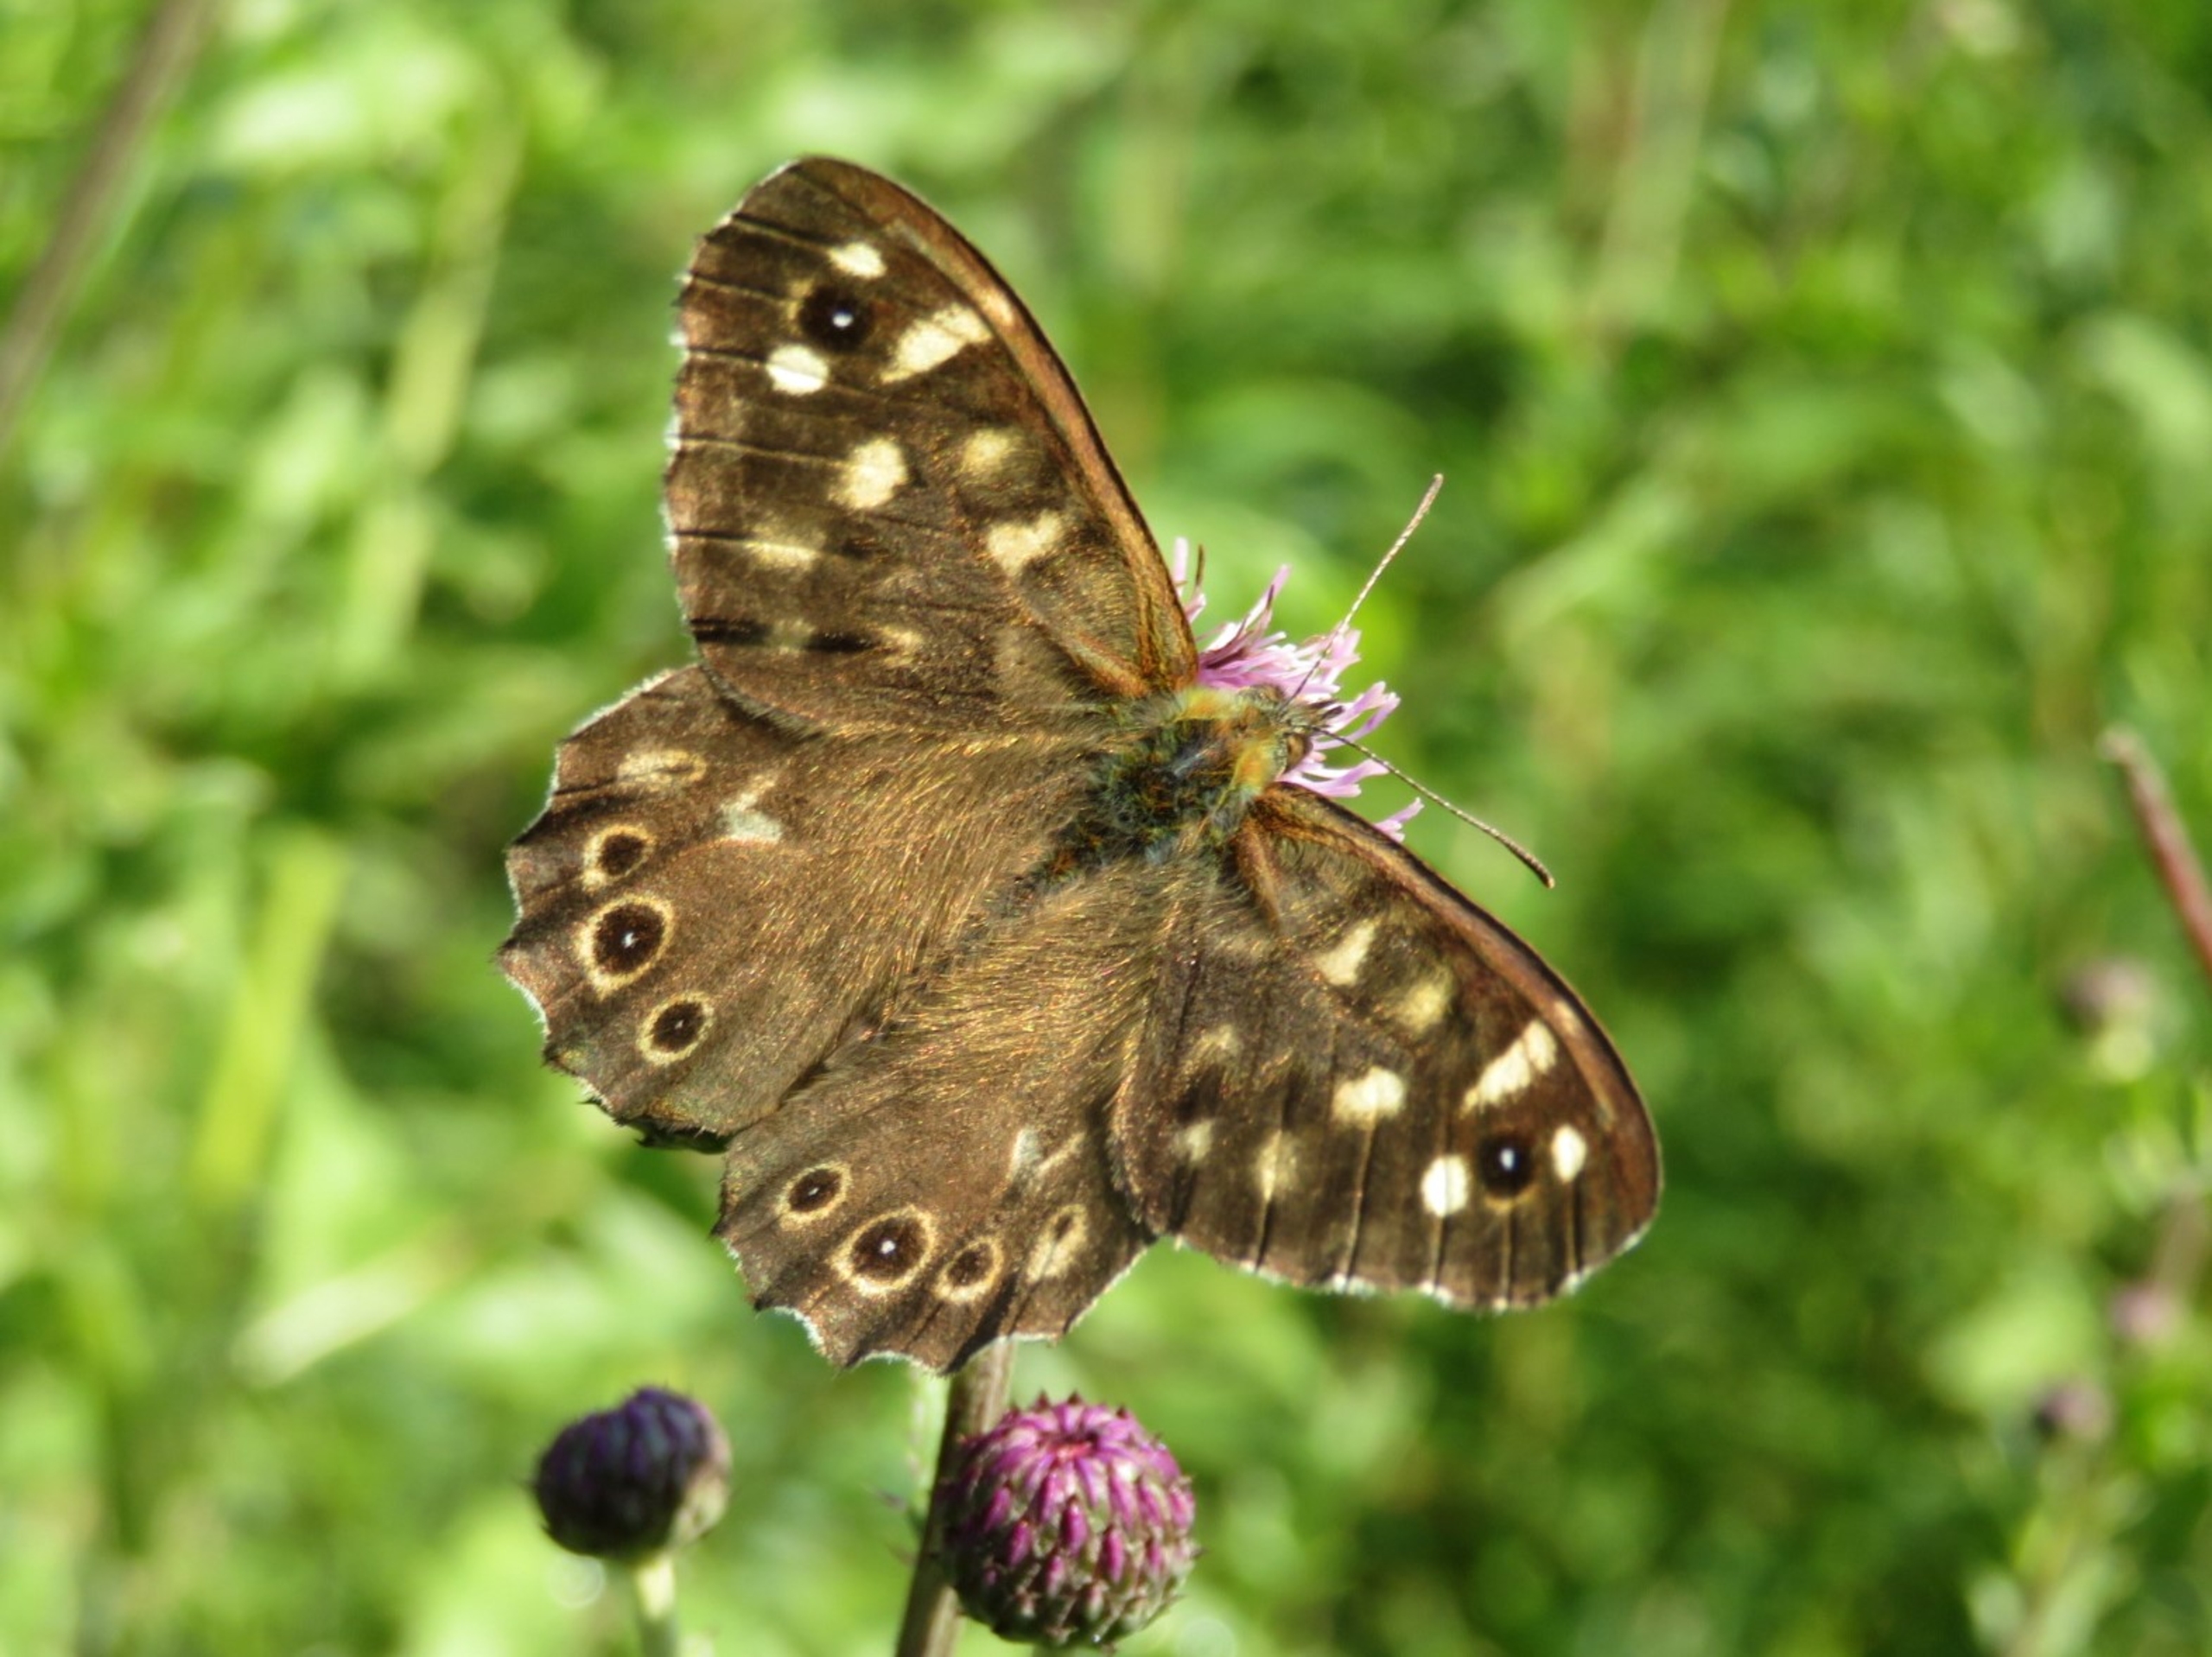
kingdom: Animalia
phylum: Arthropoda
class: Insecta
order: Lepidoptera
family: Nymphalidae
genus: Pararge
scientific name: Pararge aegeria
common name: Skovrandøje
